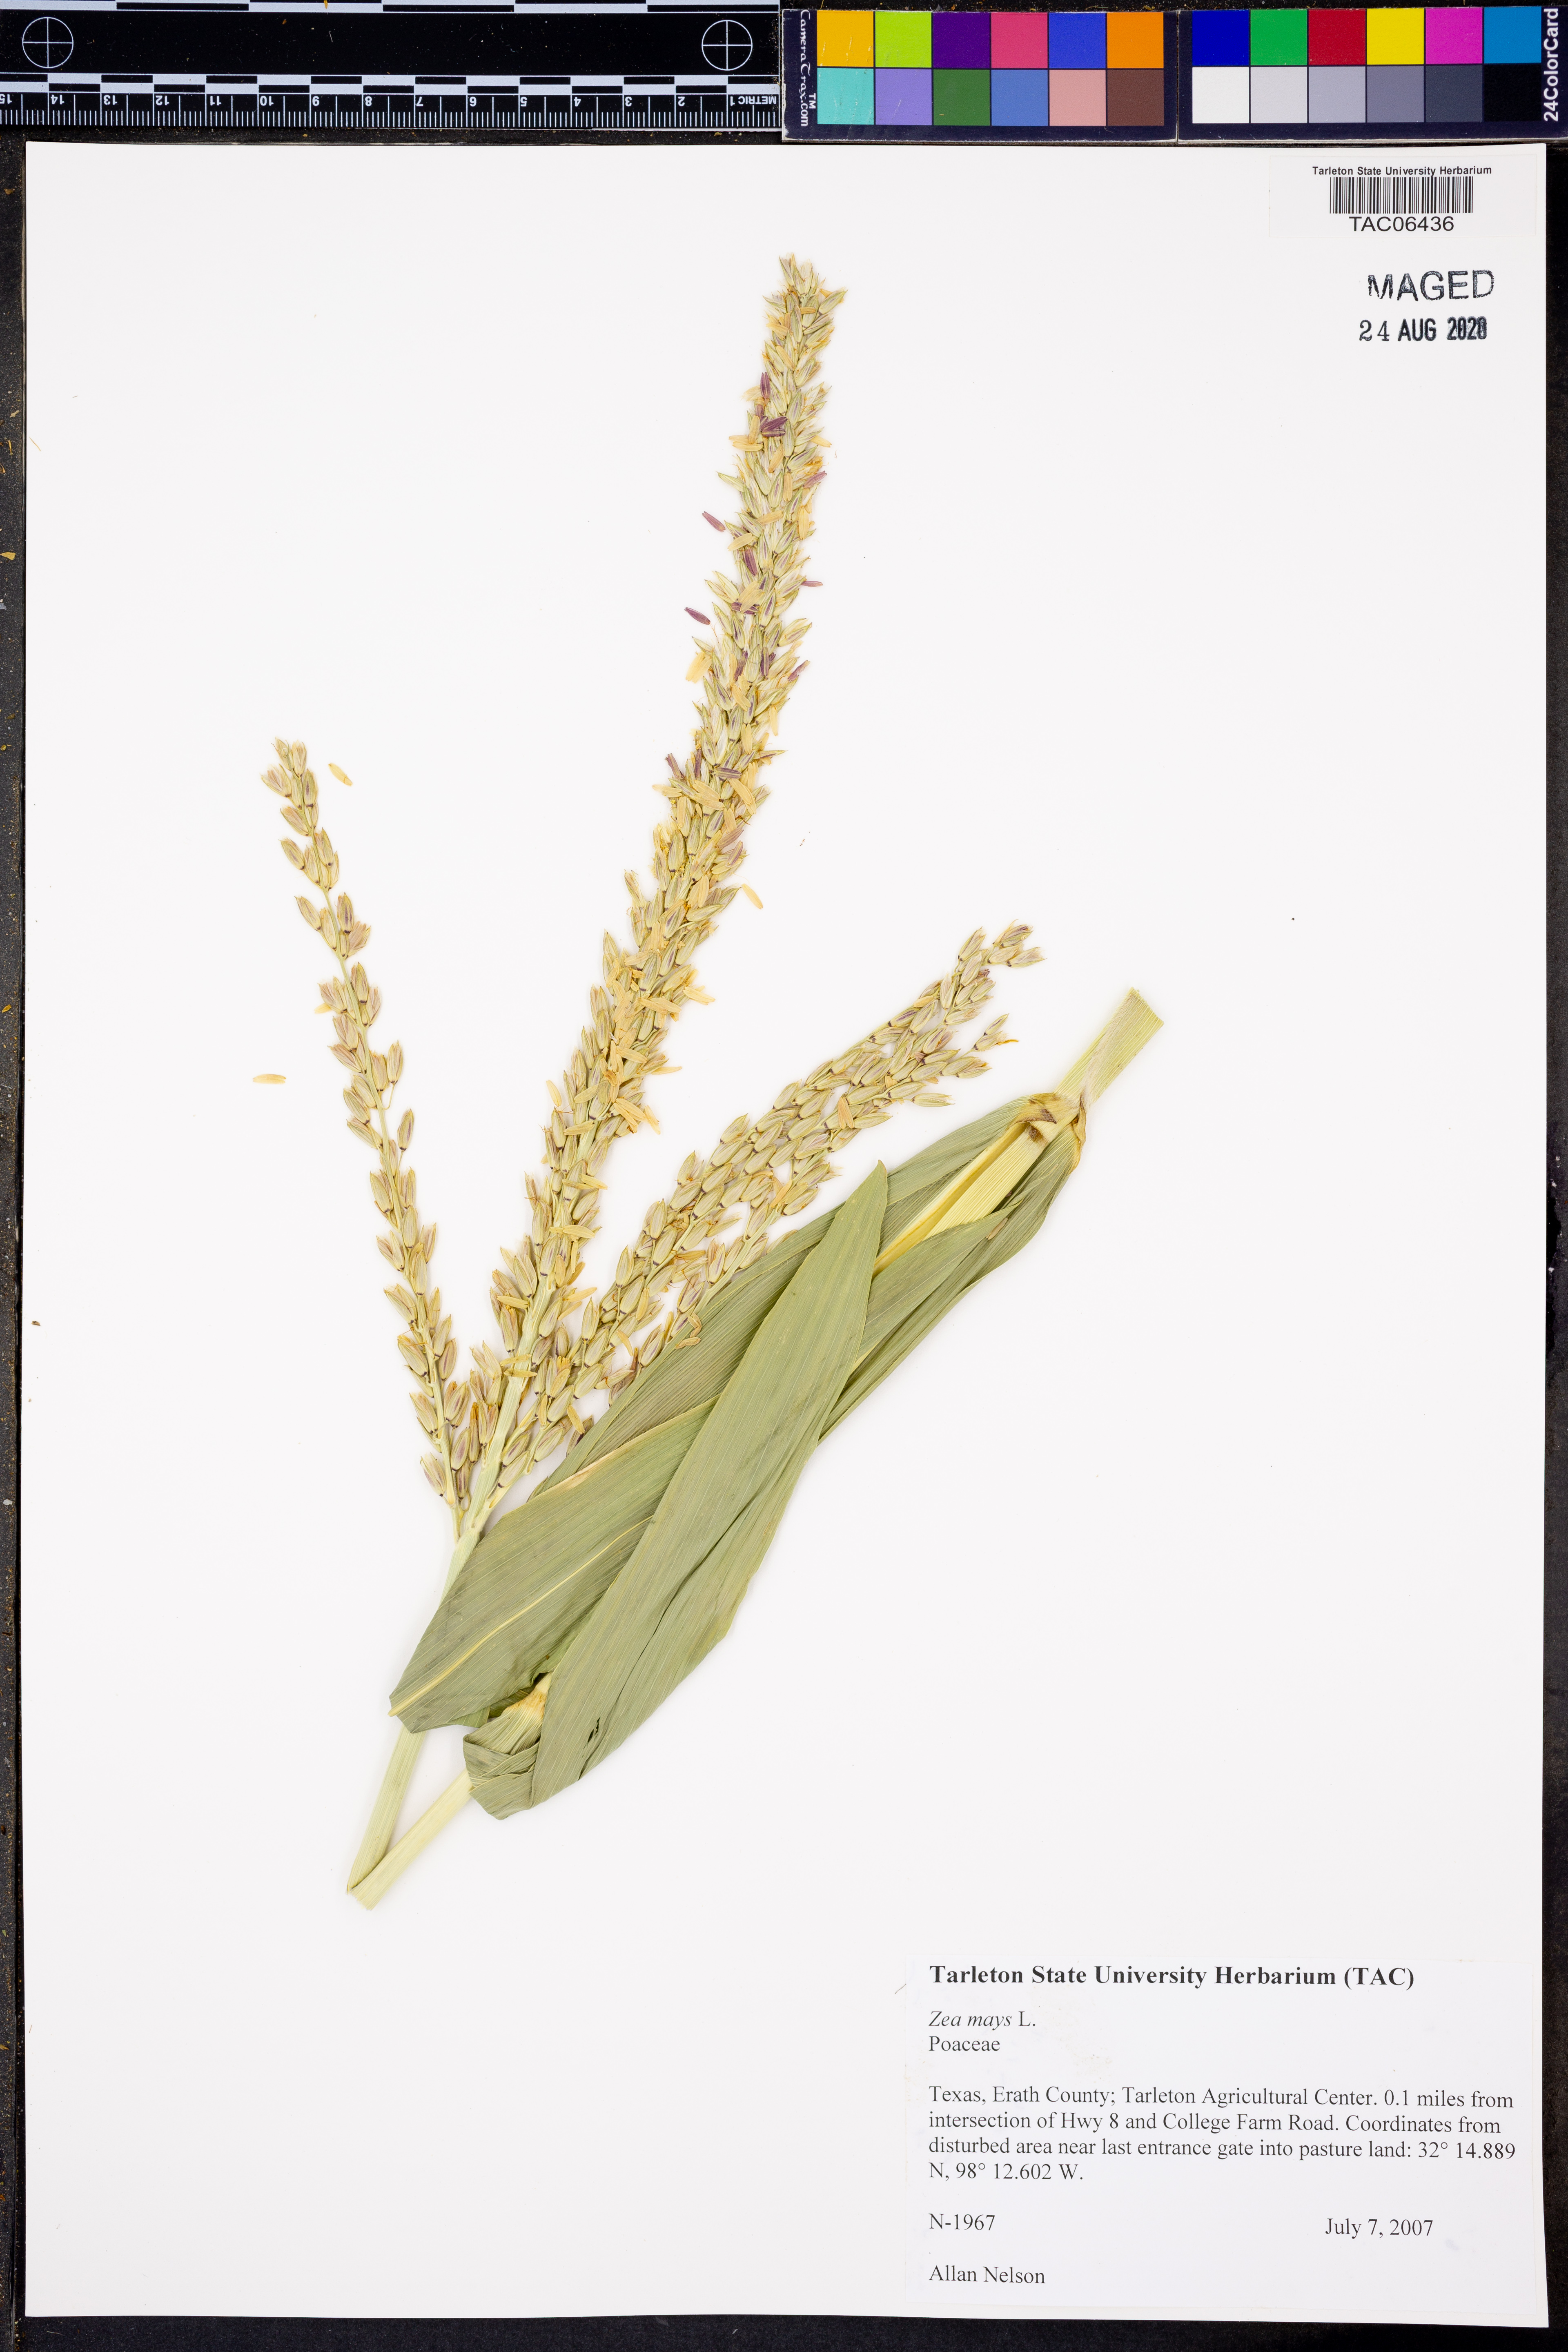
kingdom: Plantae
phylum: Tracheophyta
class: Liliopsida
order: Poales
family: Poaceae
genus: Zea
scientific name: Zea mays
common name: Maize
